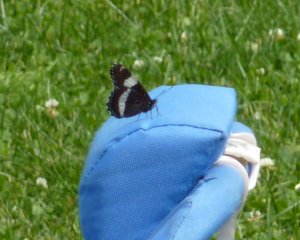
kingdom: Animalia
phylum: Arthropoda
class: Insecta
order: Lepidoptera
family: Nymphalidae
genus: Limenitis
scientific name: Limenitis arthemis
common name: Red-spotted Admiral
